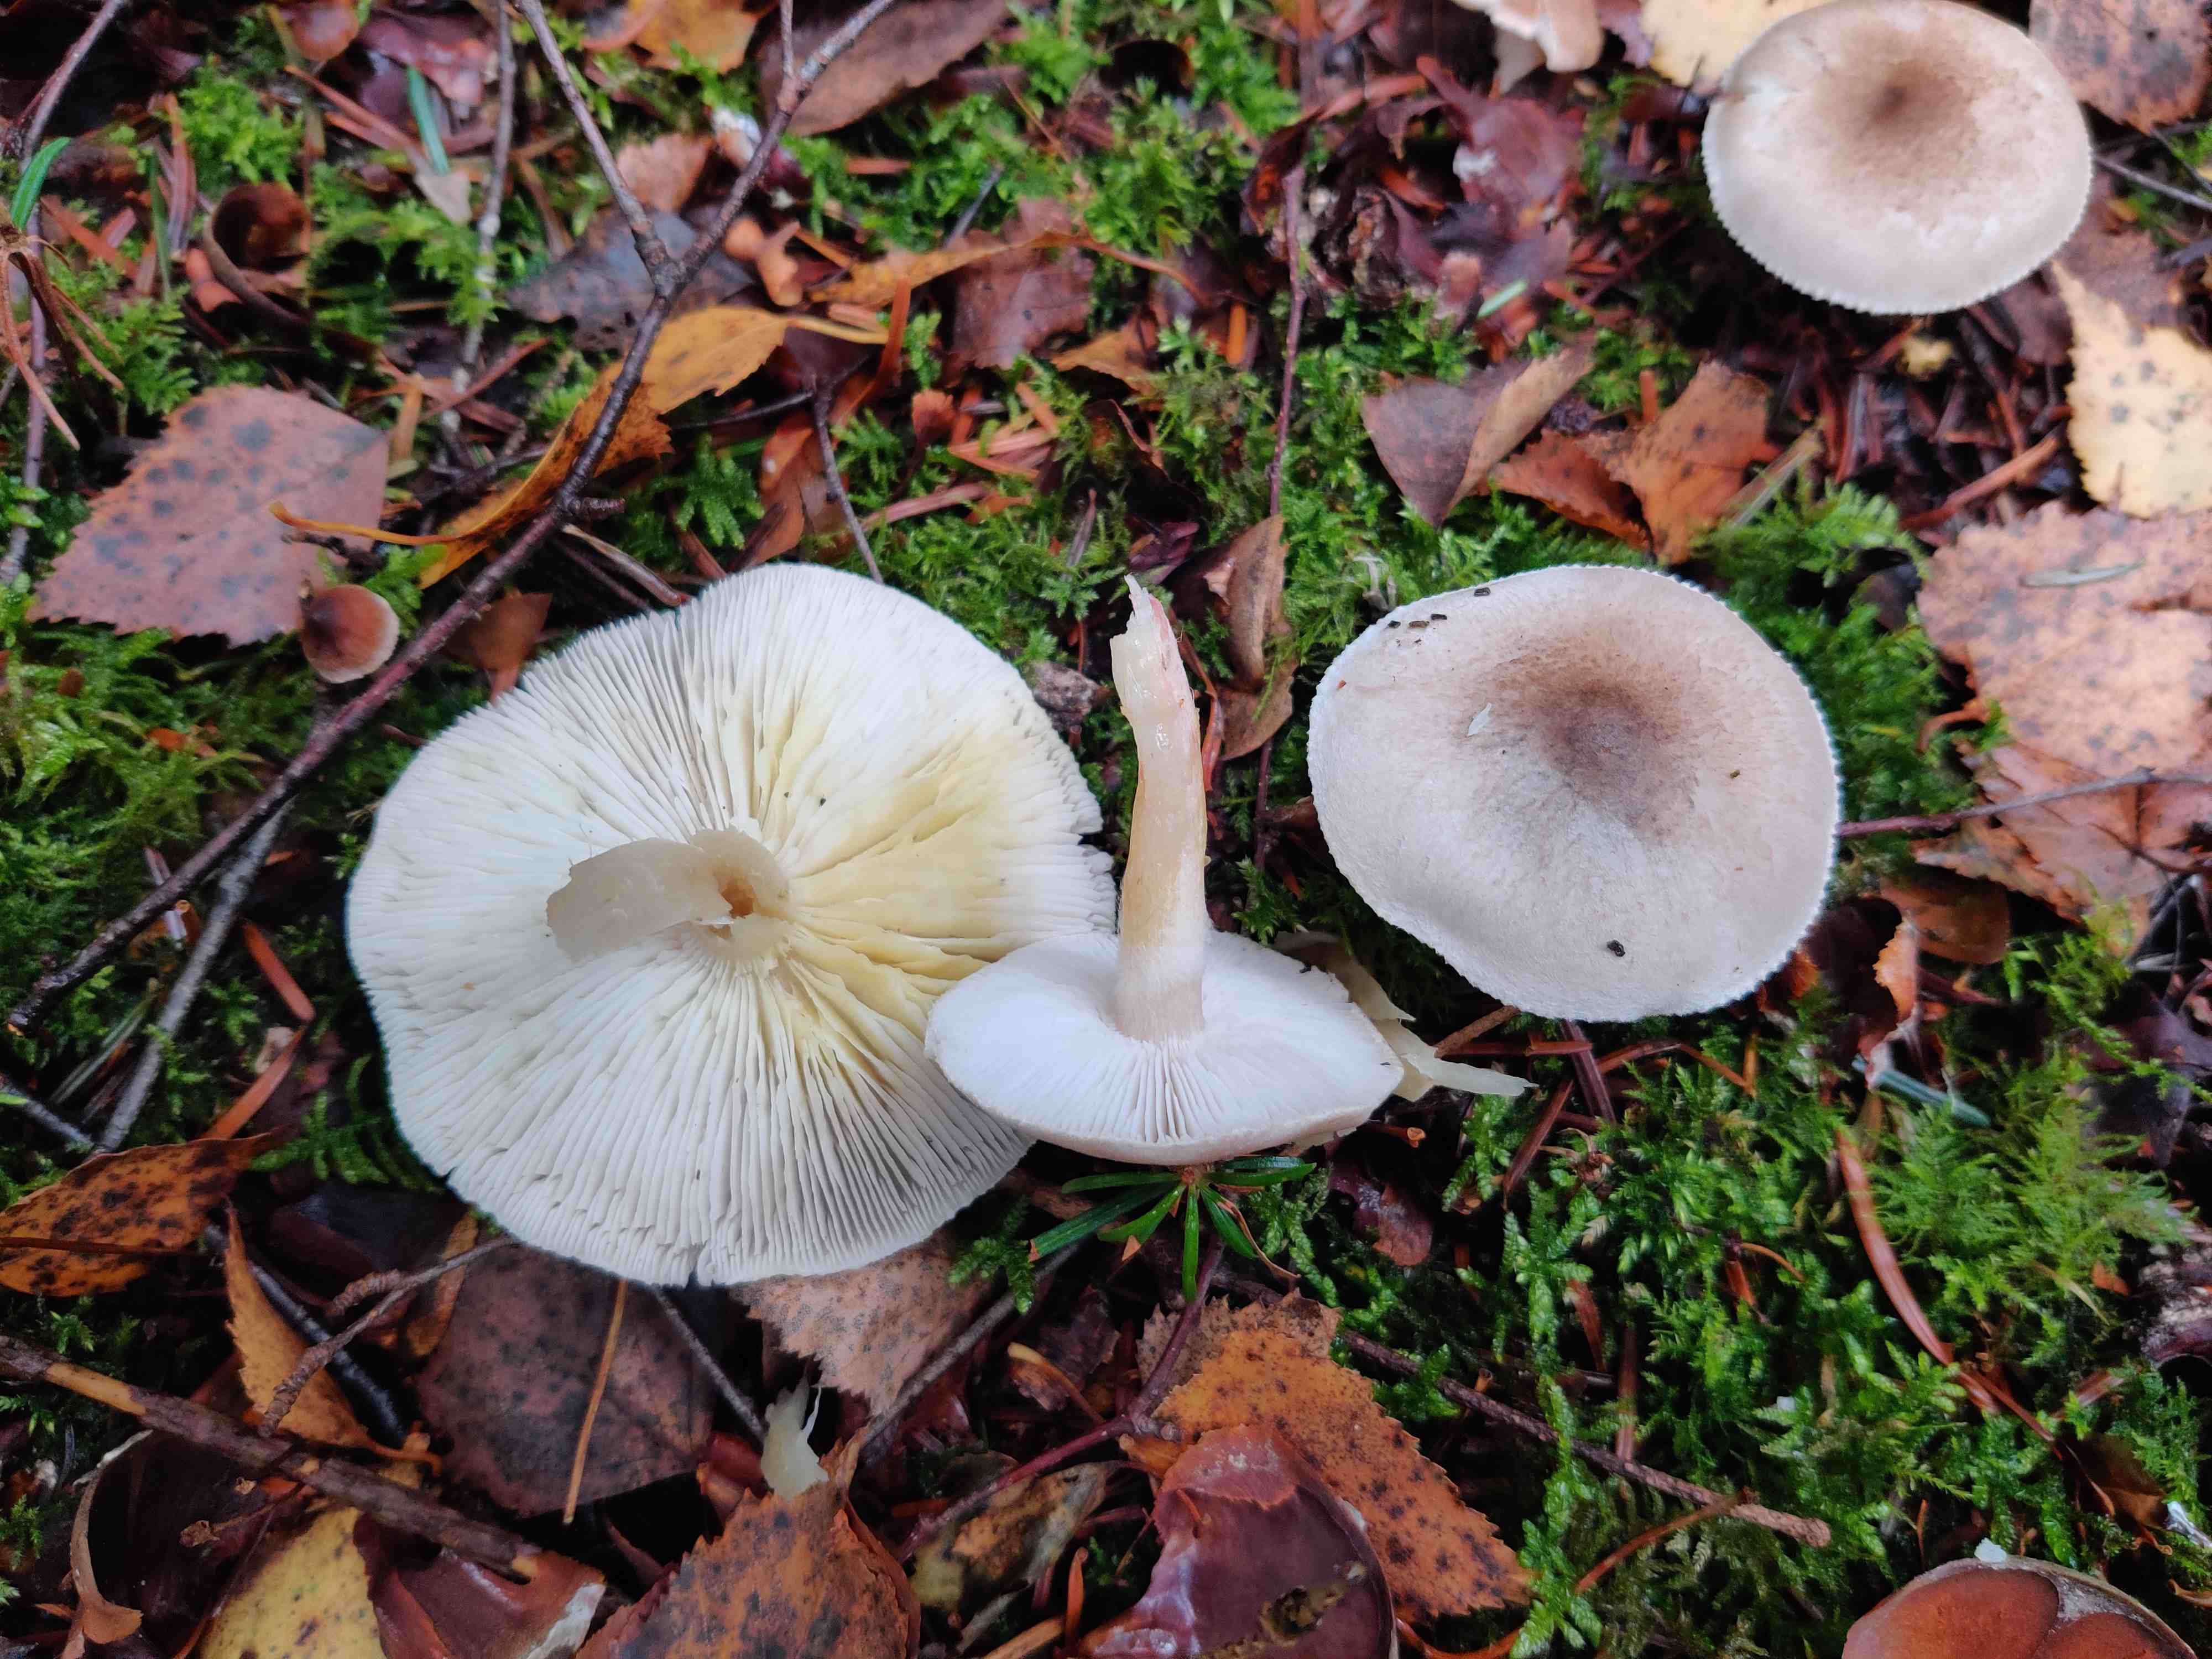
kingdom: Fungi
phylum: Basidiomycota
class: Agaricomycetes
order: Agaricales
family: Tricholomataceae
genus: Tricholoma
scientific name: Tricholoma scalpturatum
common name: gulplettet ridderhat
